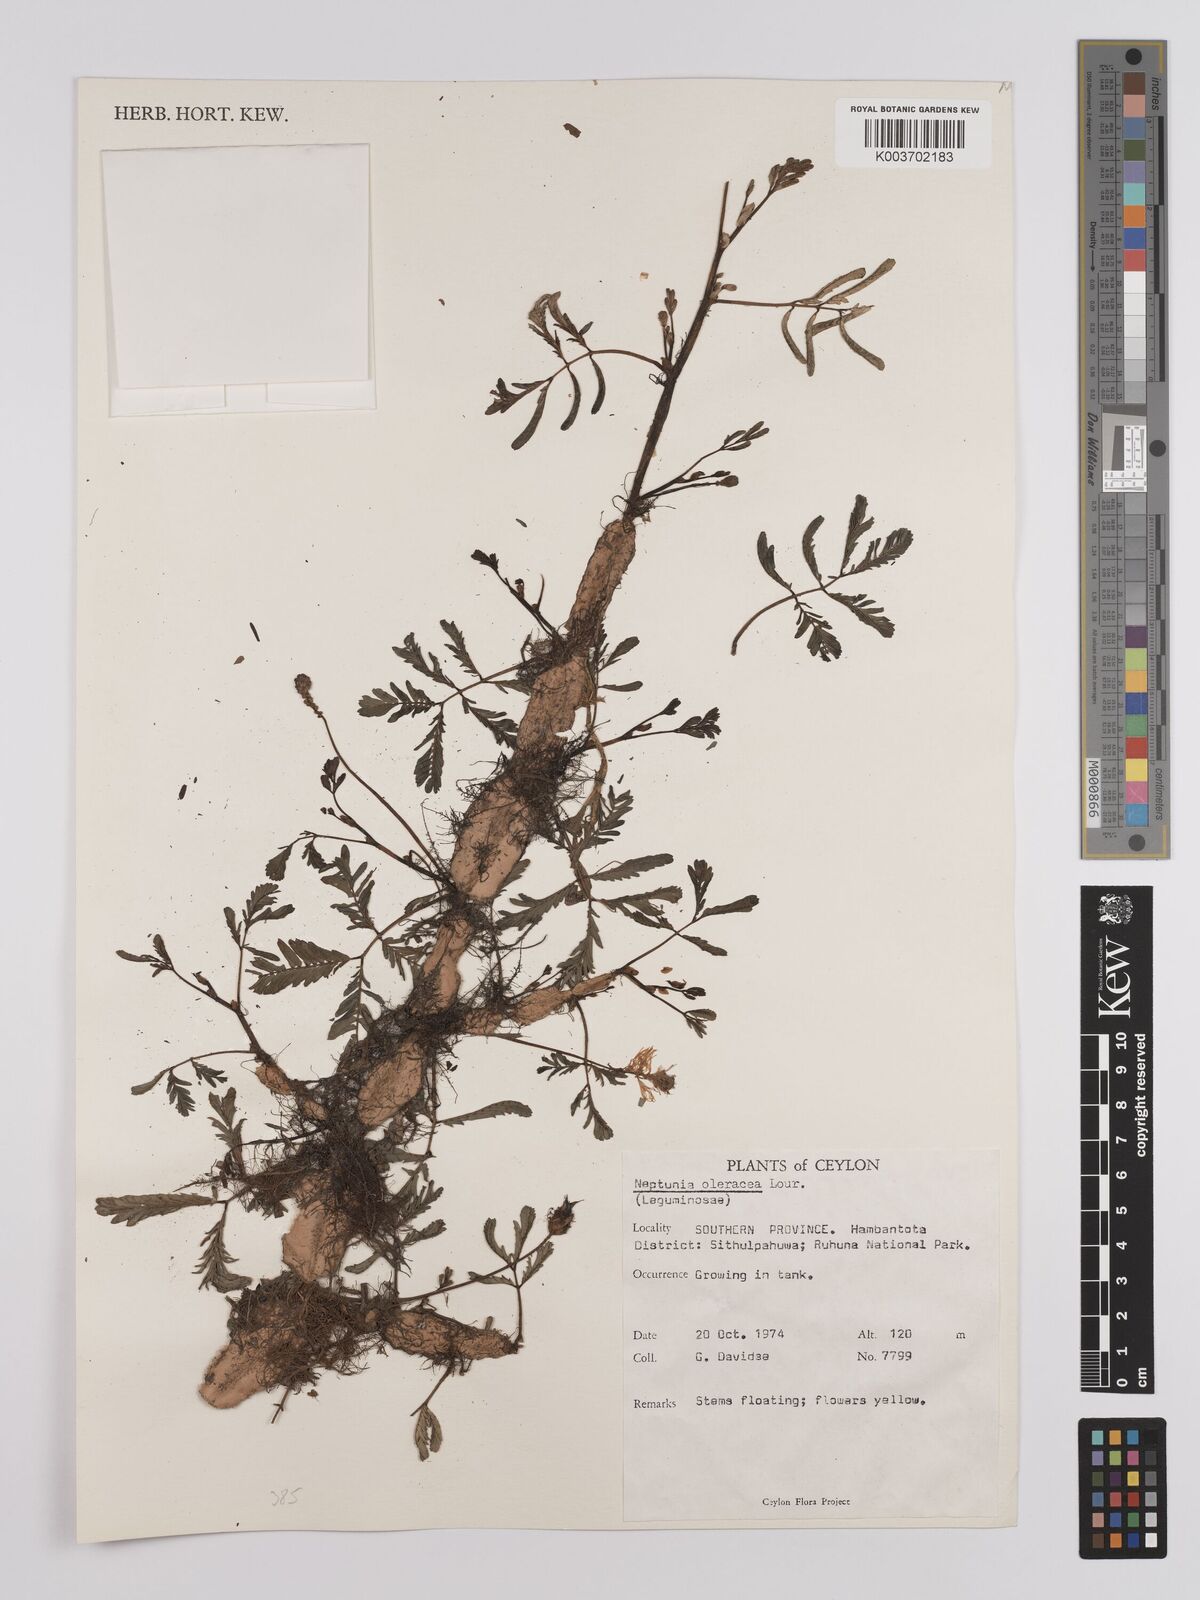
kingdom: Plantae
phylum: Tracheophyta
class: Magnoliopsida
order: Fabales
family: Fabaceae
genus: Neptunia
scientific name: Neptunia prostrata
